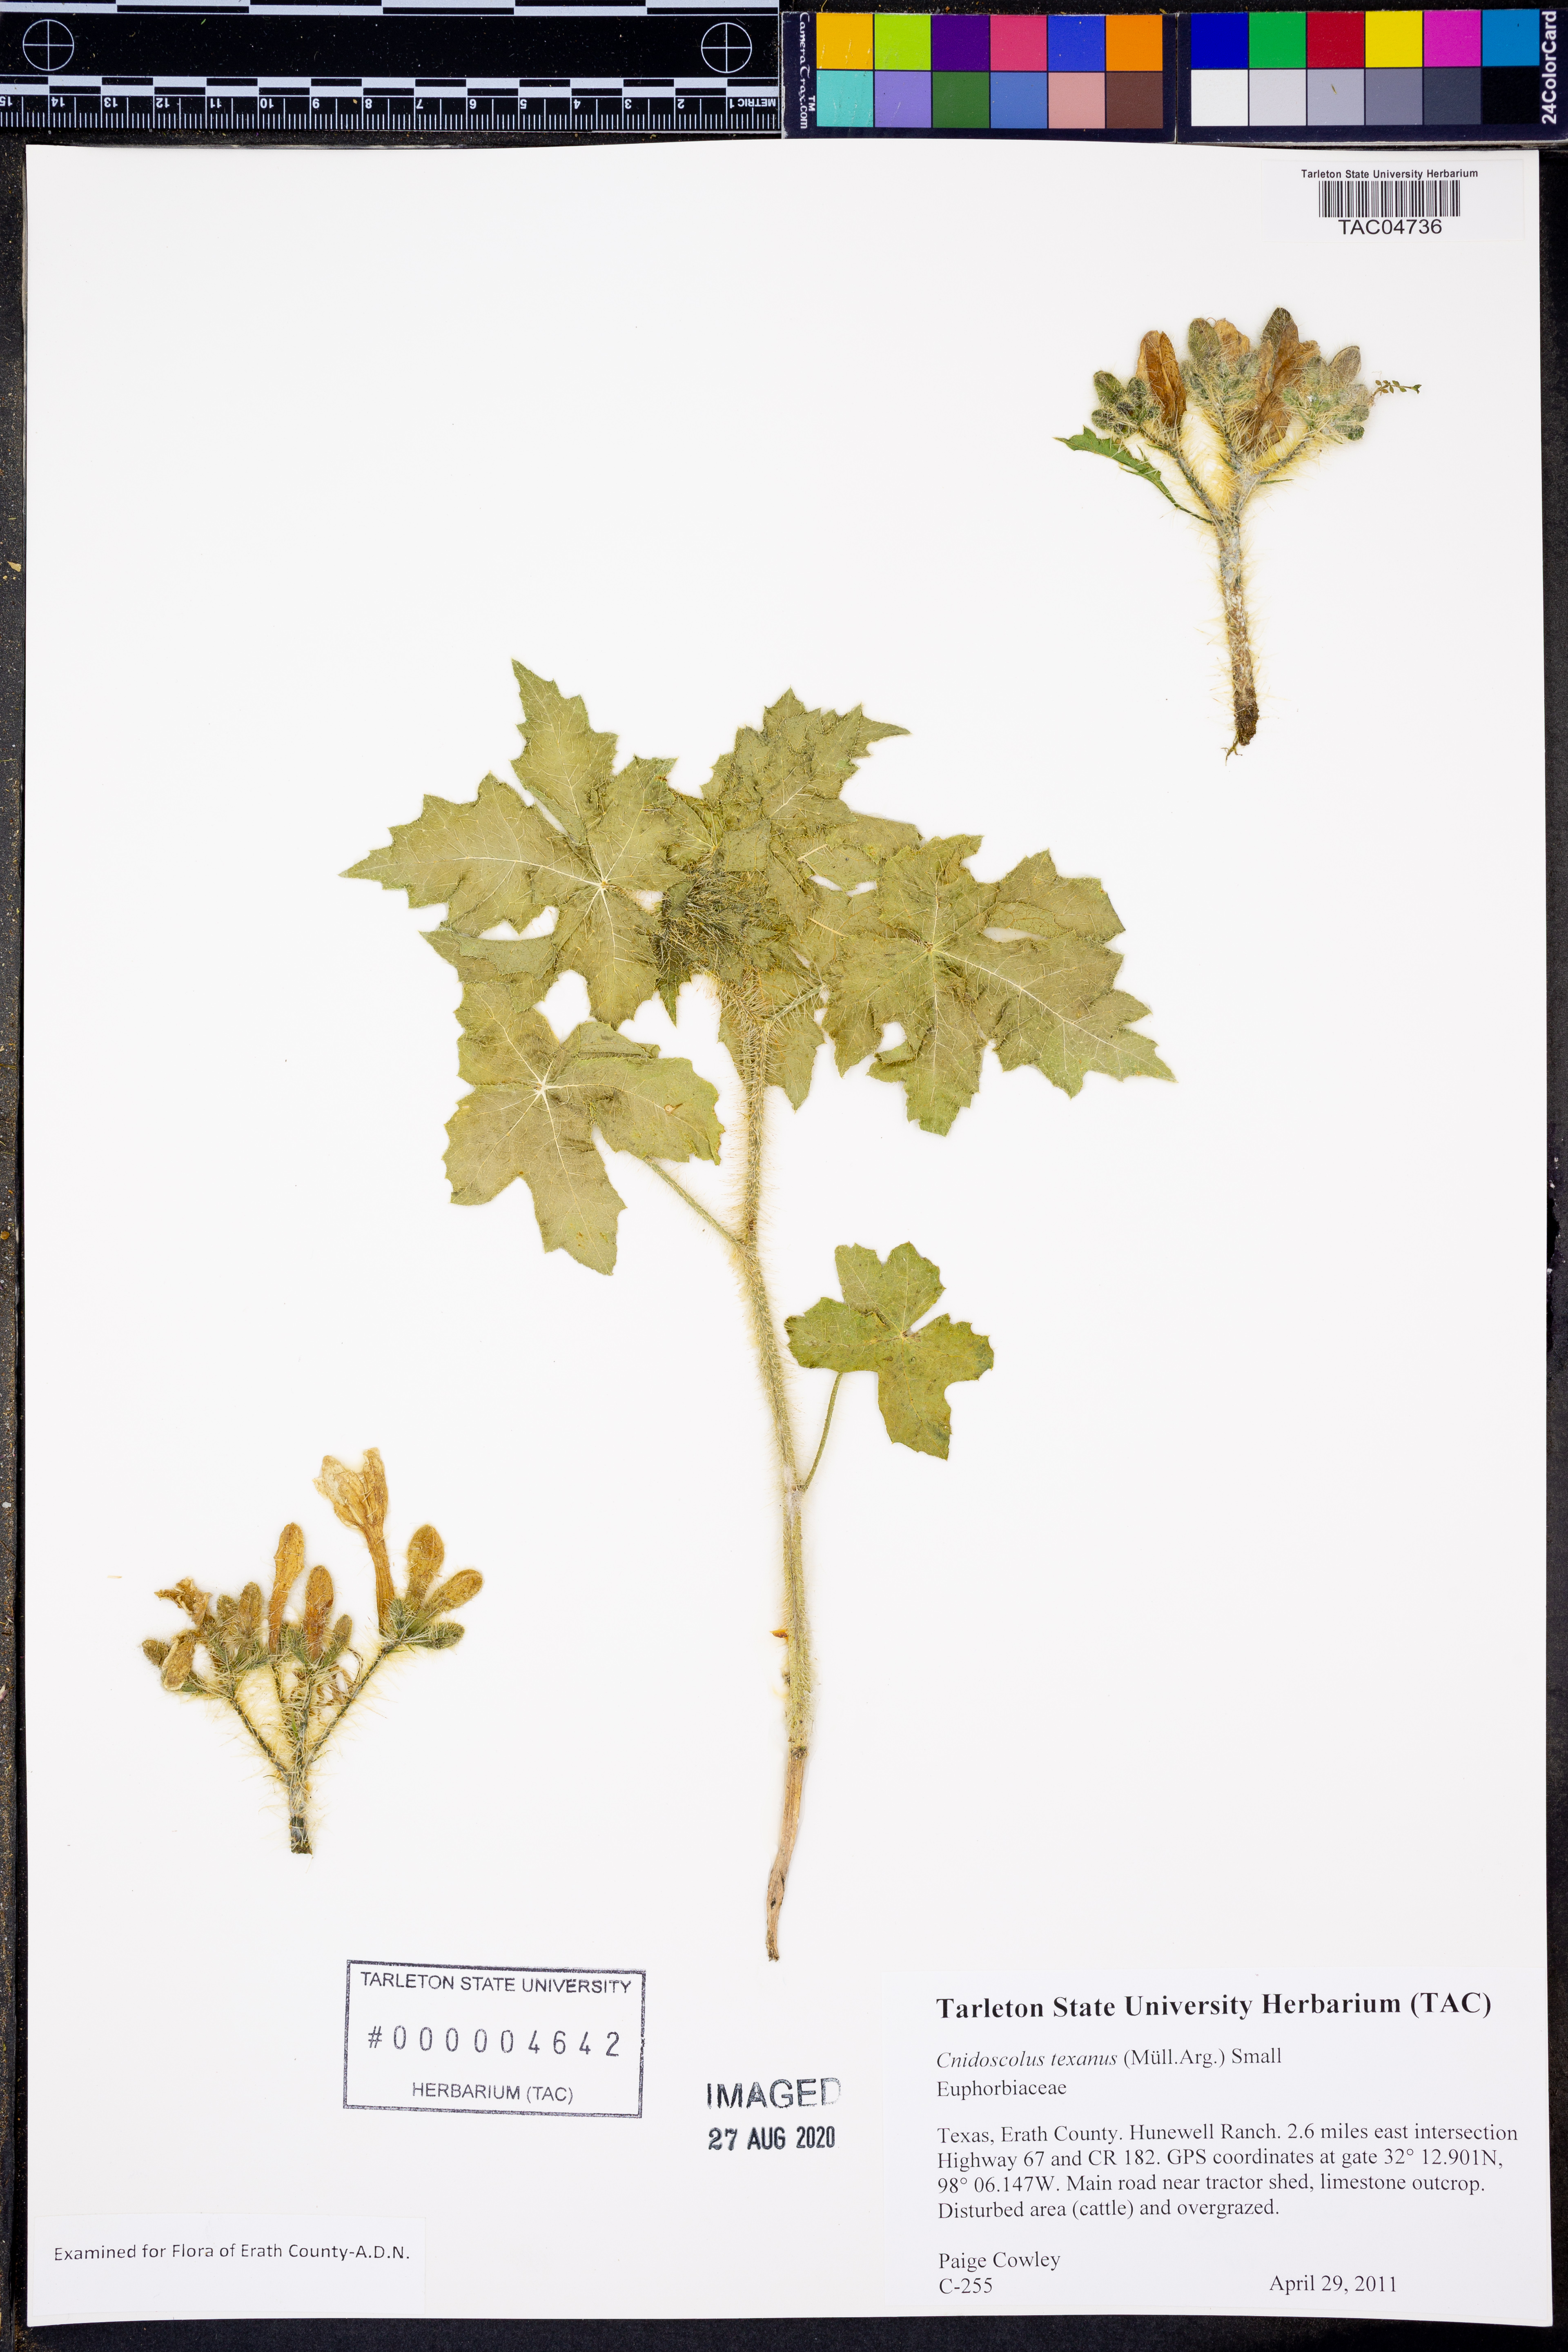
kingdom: Plantae
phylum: Tracheophyta
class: Magnoliopsida
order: Malpighiales
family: Euphorbiaceae
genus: Cnidoscolus
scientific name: Cnidoscolus texanus
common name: Texas bull-nettle
